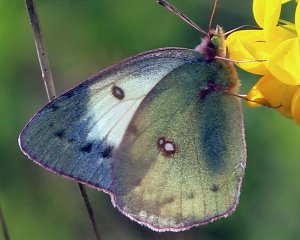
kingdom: Animalia
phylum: Arthropoda
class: Insecta
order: Lepidoptera
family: Pieridae
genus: Colias
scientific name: Colias philodice
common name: Clouded Sulphur
